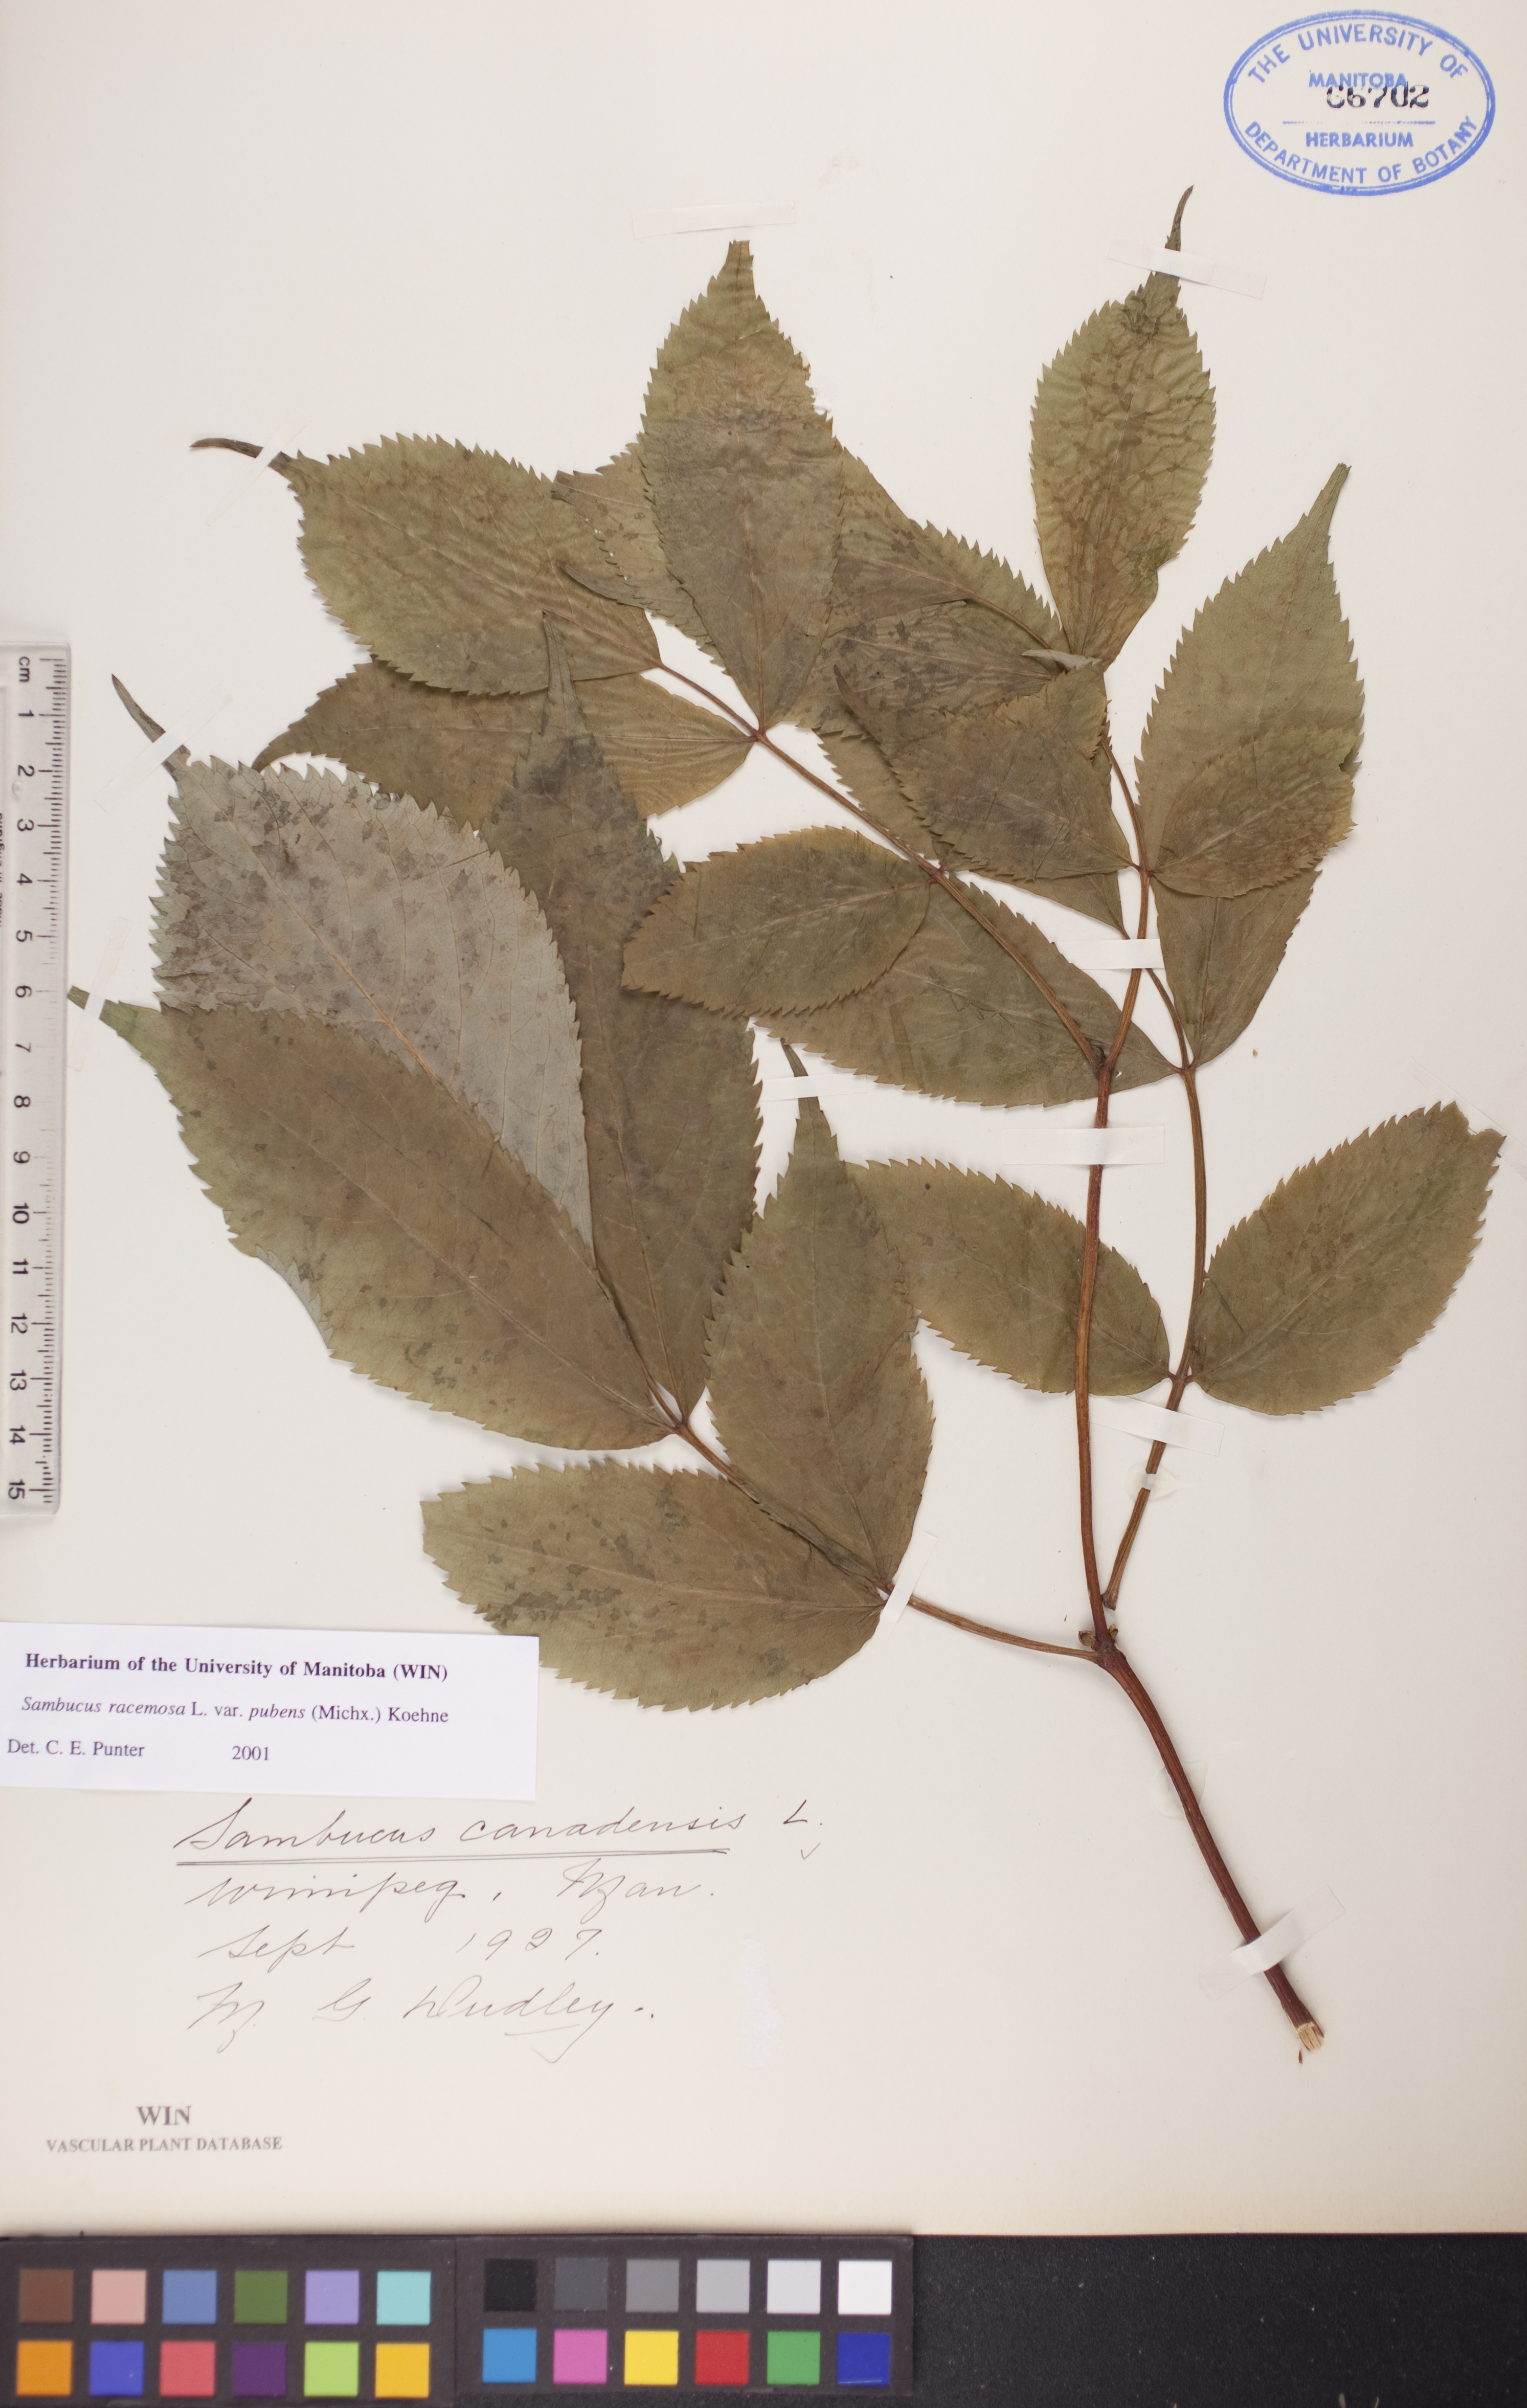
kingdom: Plantae
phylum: Tracheophyta
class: Magnoliopsida
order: Dipsacales
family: Viburnaceae
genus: Sambucus
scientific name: Sambucus racemosa
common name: Red-berried elder
